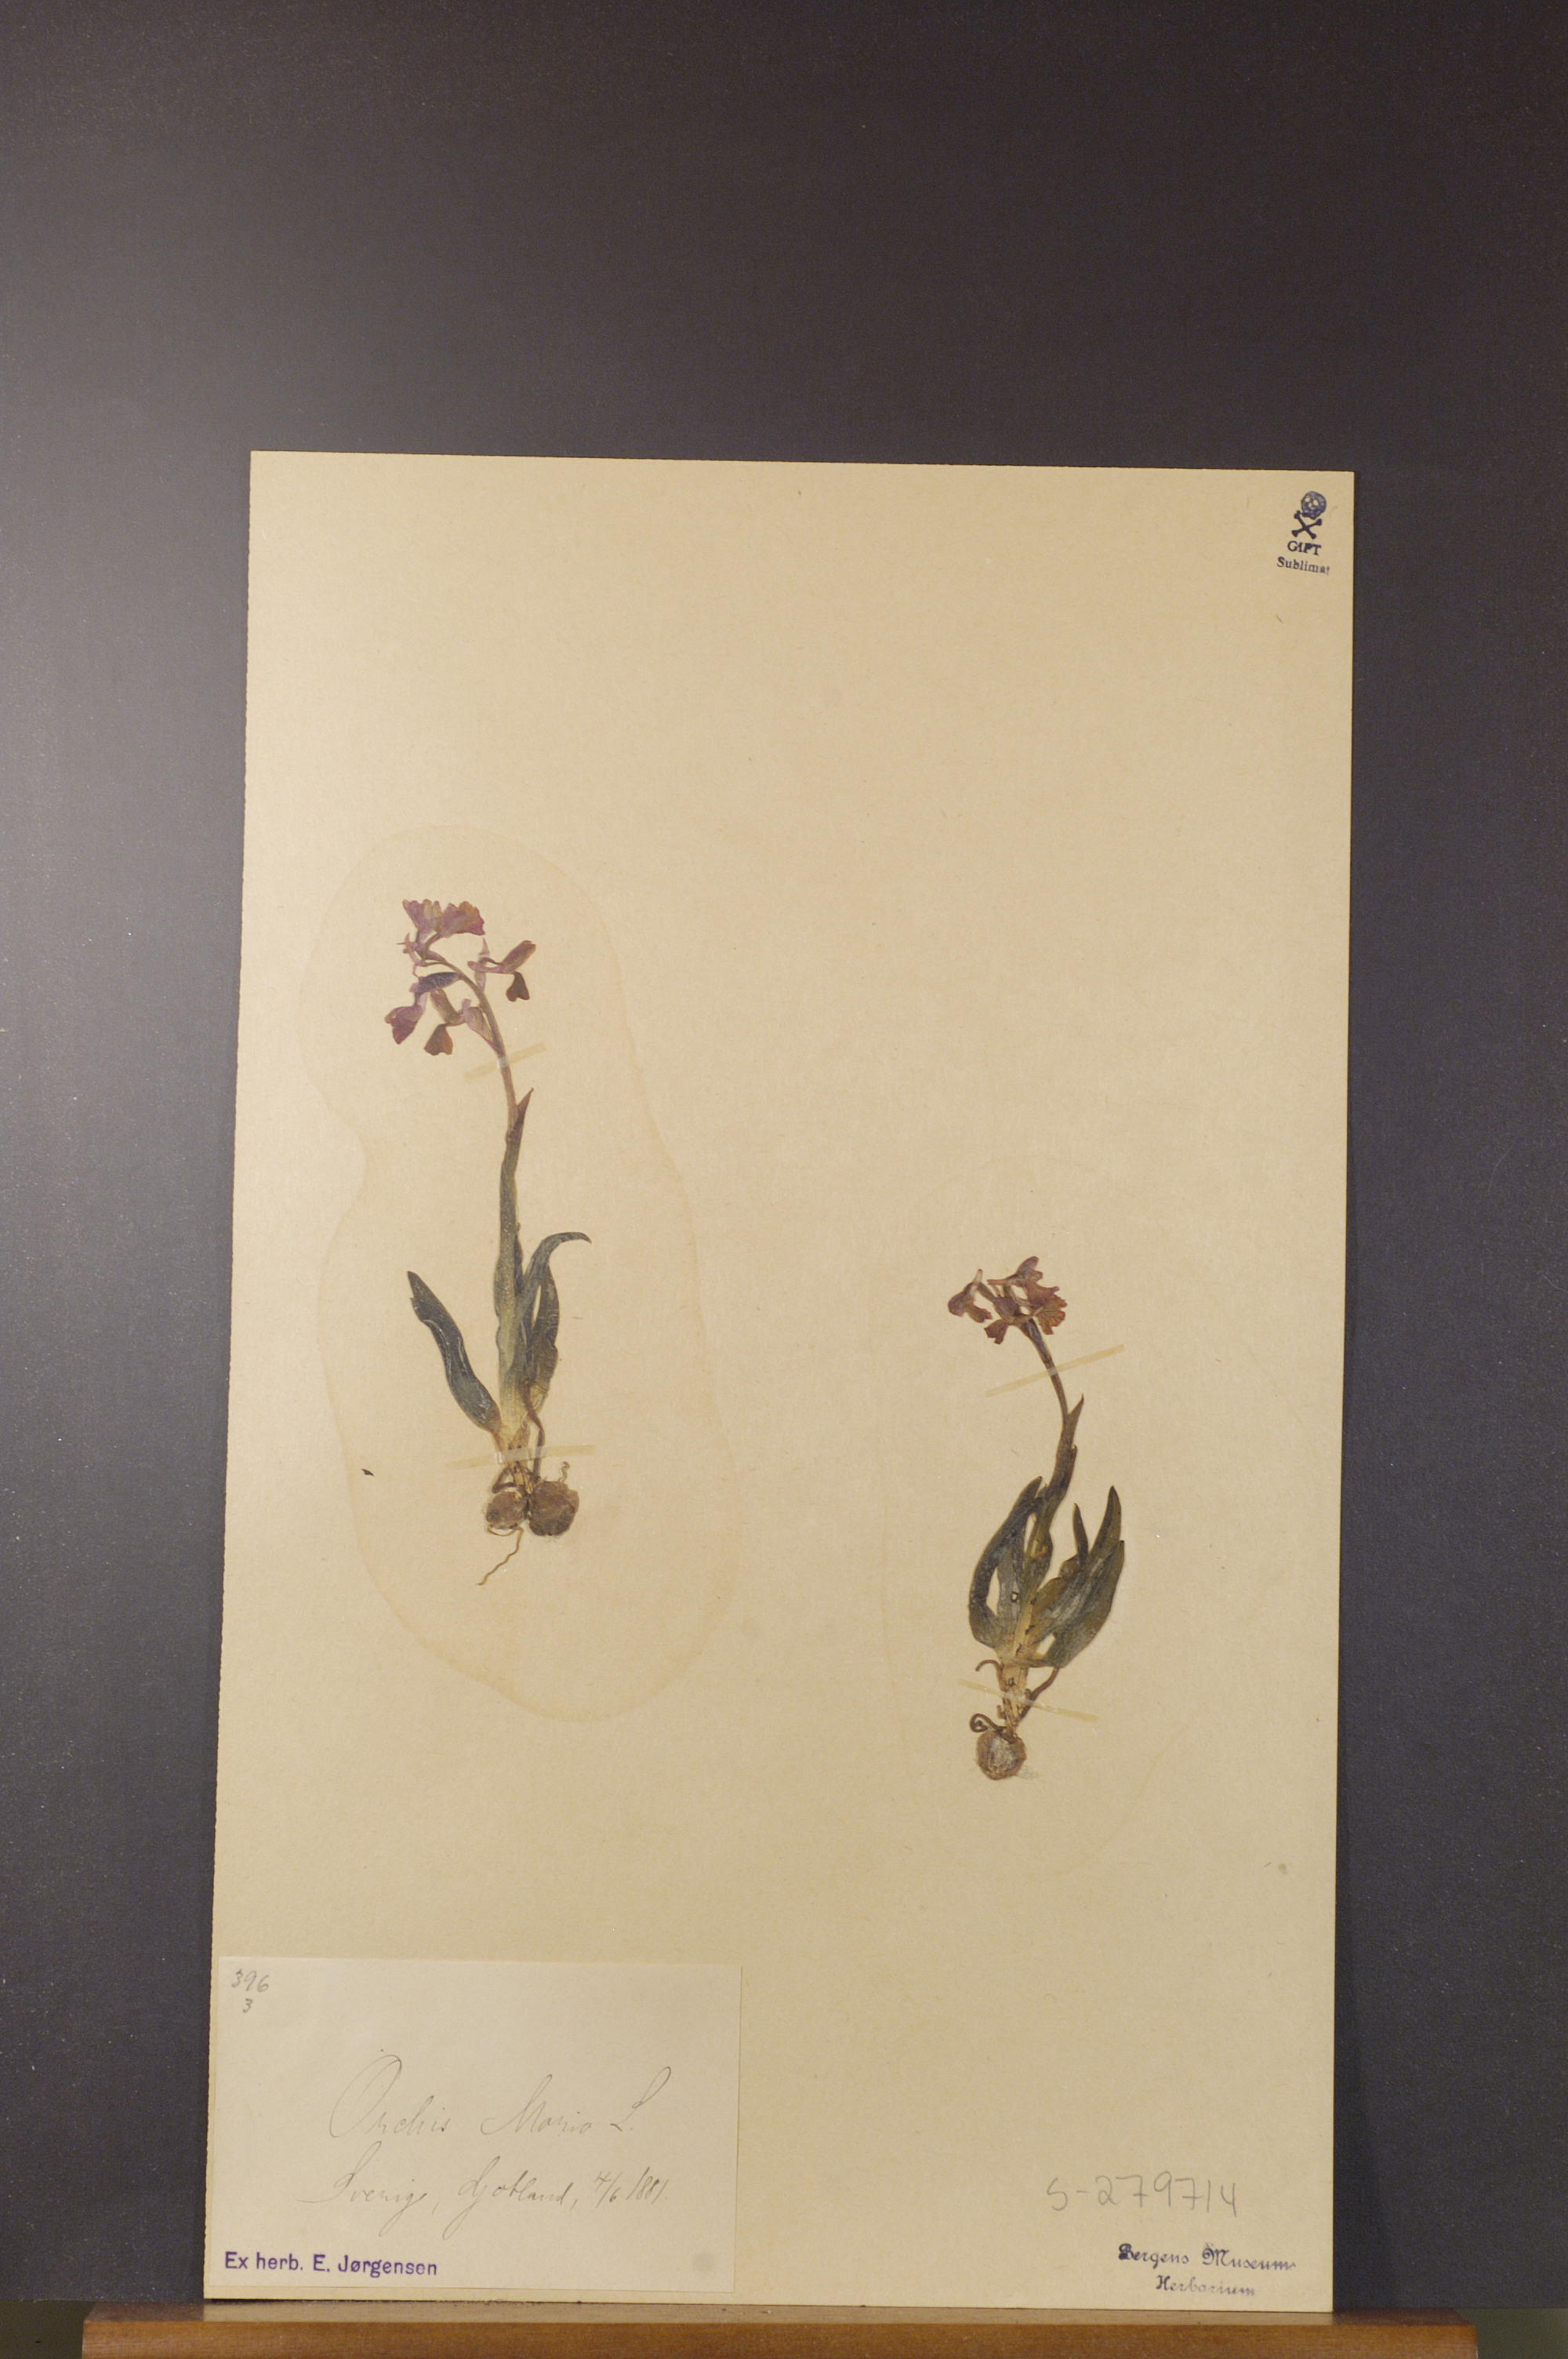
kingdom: Plantae
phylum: Tracheophyta
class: Liliopsida
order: Asparagales
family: Orchidaceae
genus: Anacamptis
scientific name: Anacamptis morio
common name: Green-winged orchid
